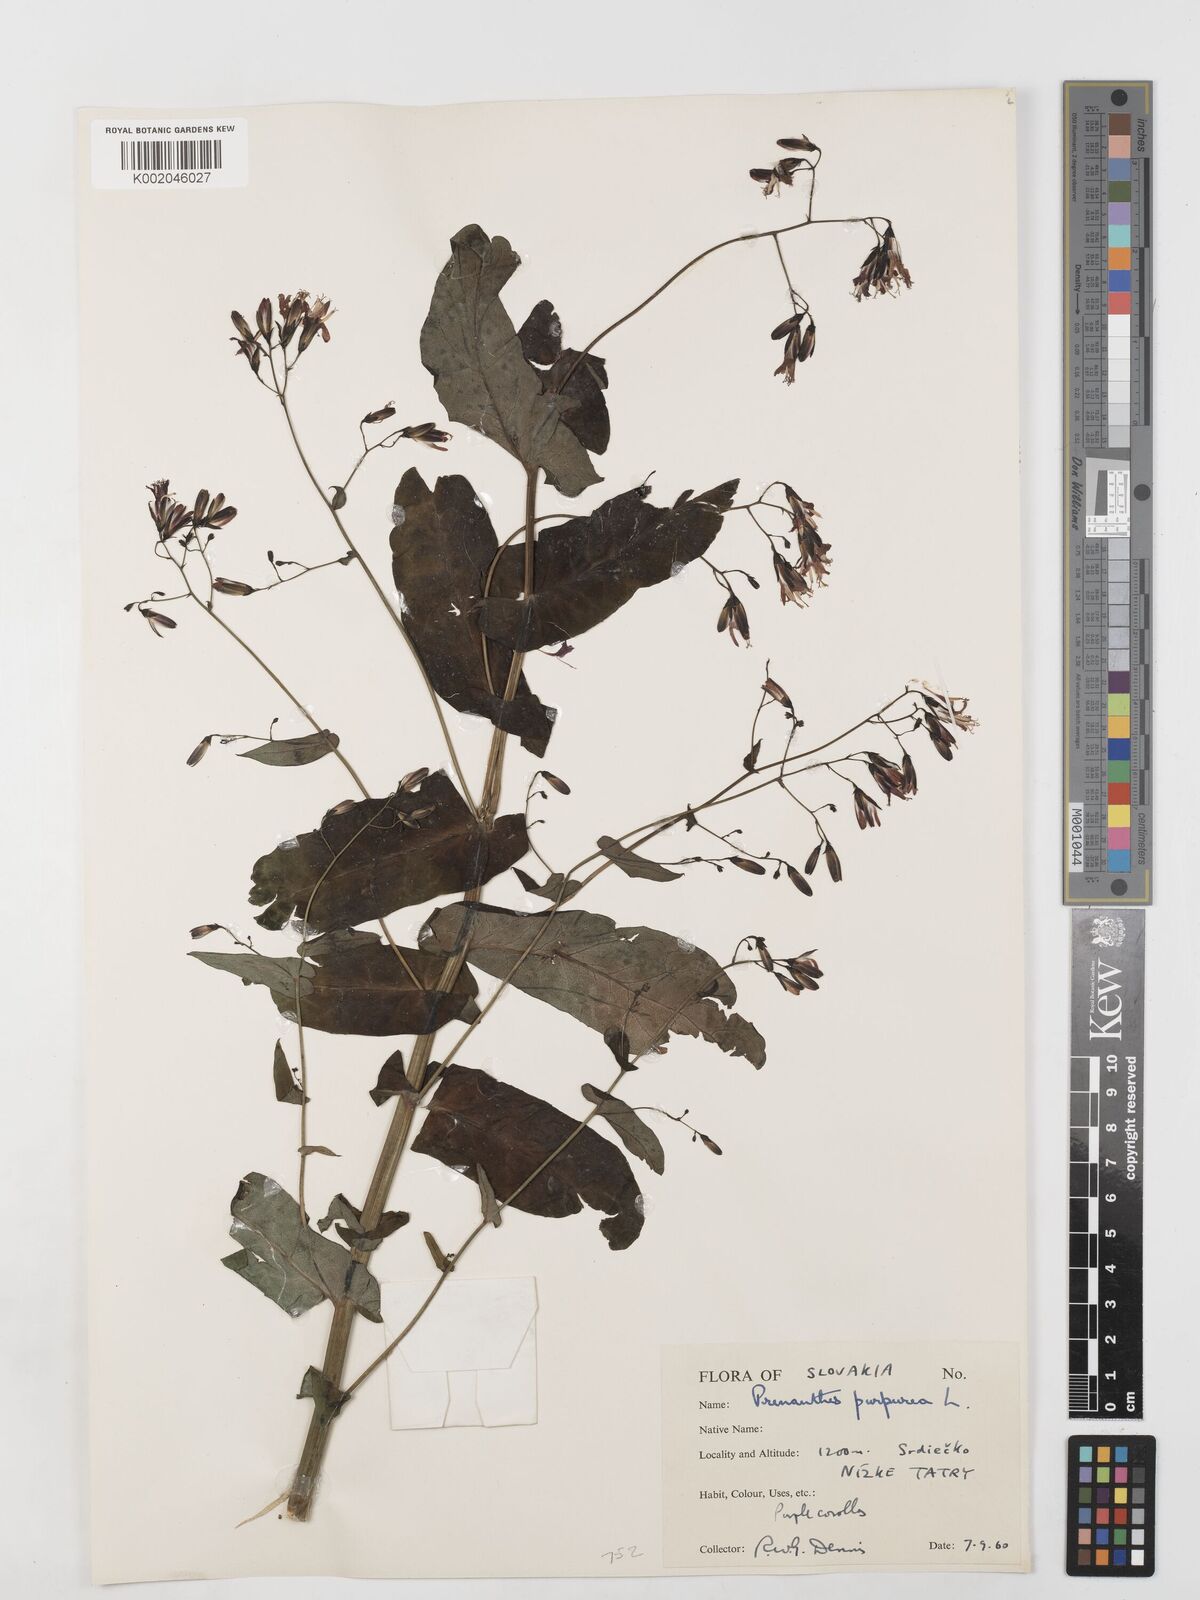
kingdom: Plantae
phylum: Tracheophyta
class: Magnoliopsida
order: Asterales
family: Asteraceae
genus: Prenanthes
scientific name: Prenanthes purpurea
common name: Purple lettuce
